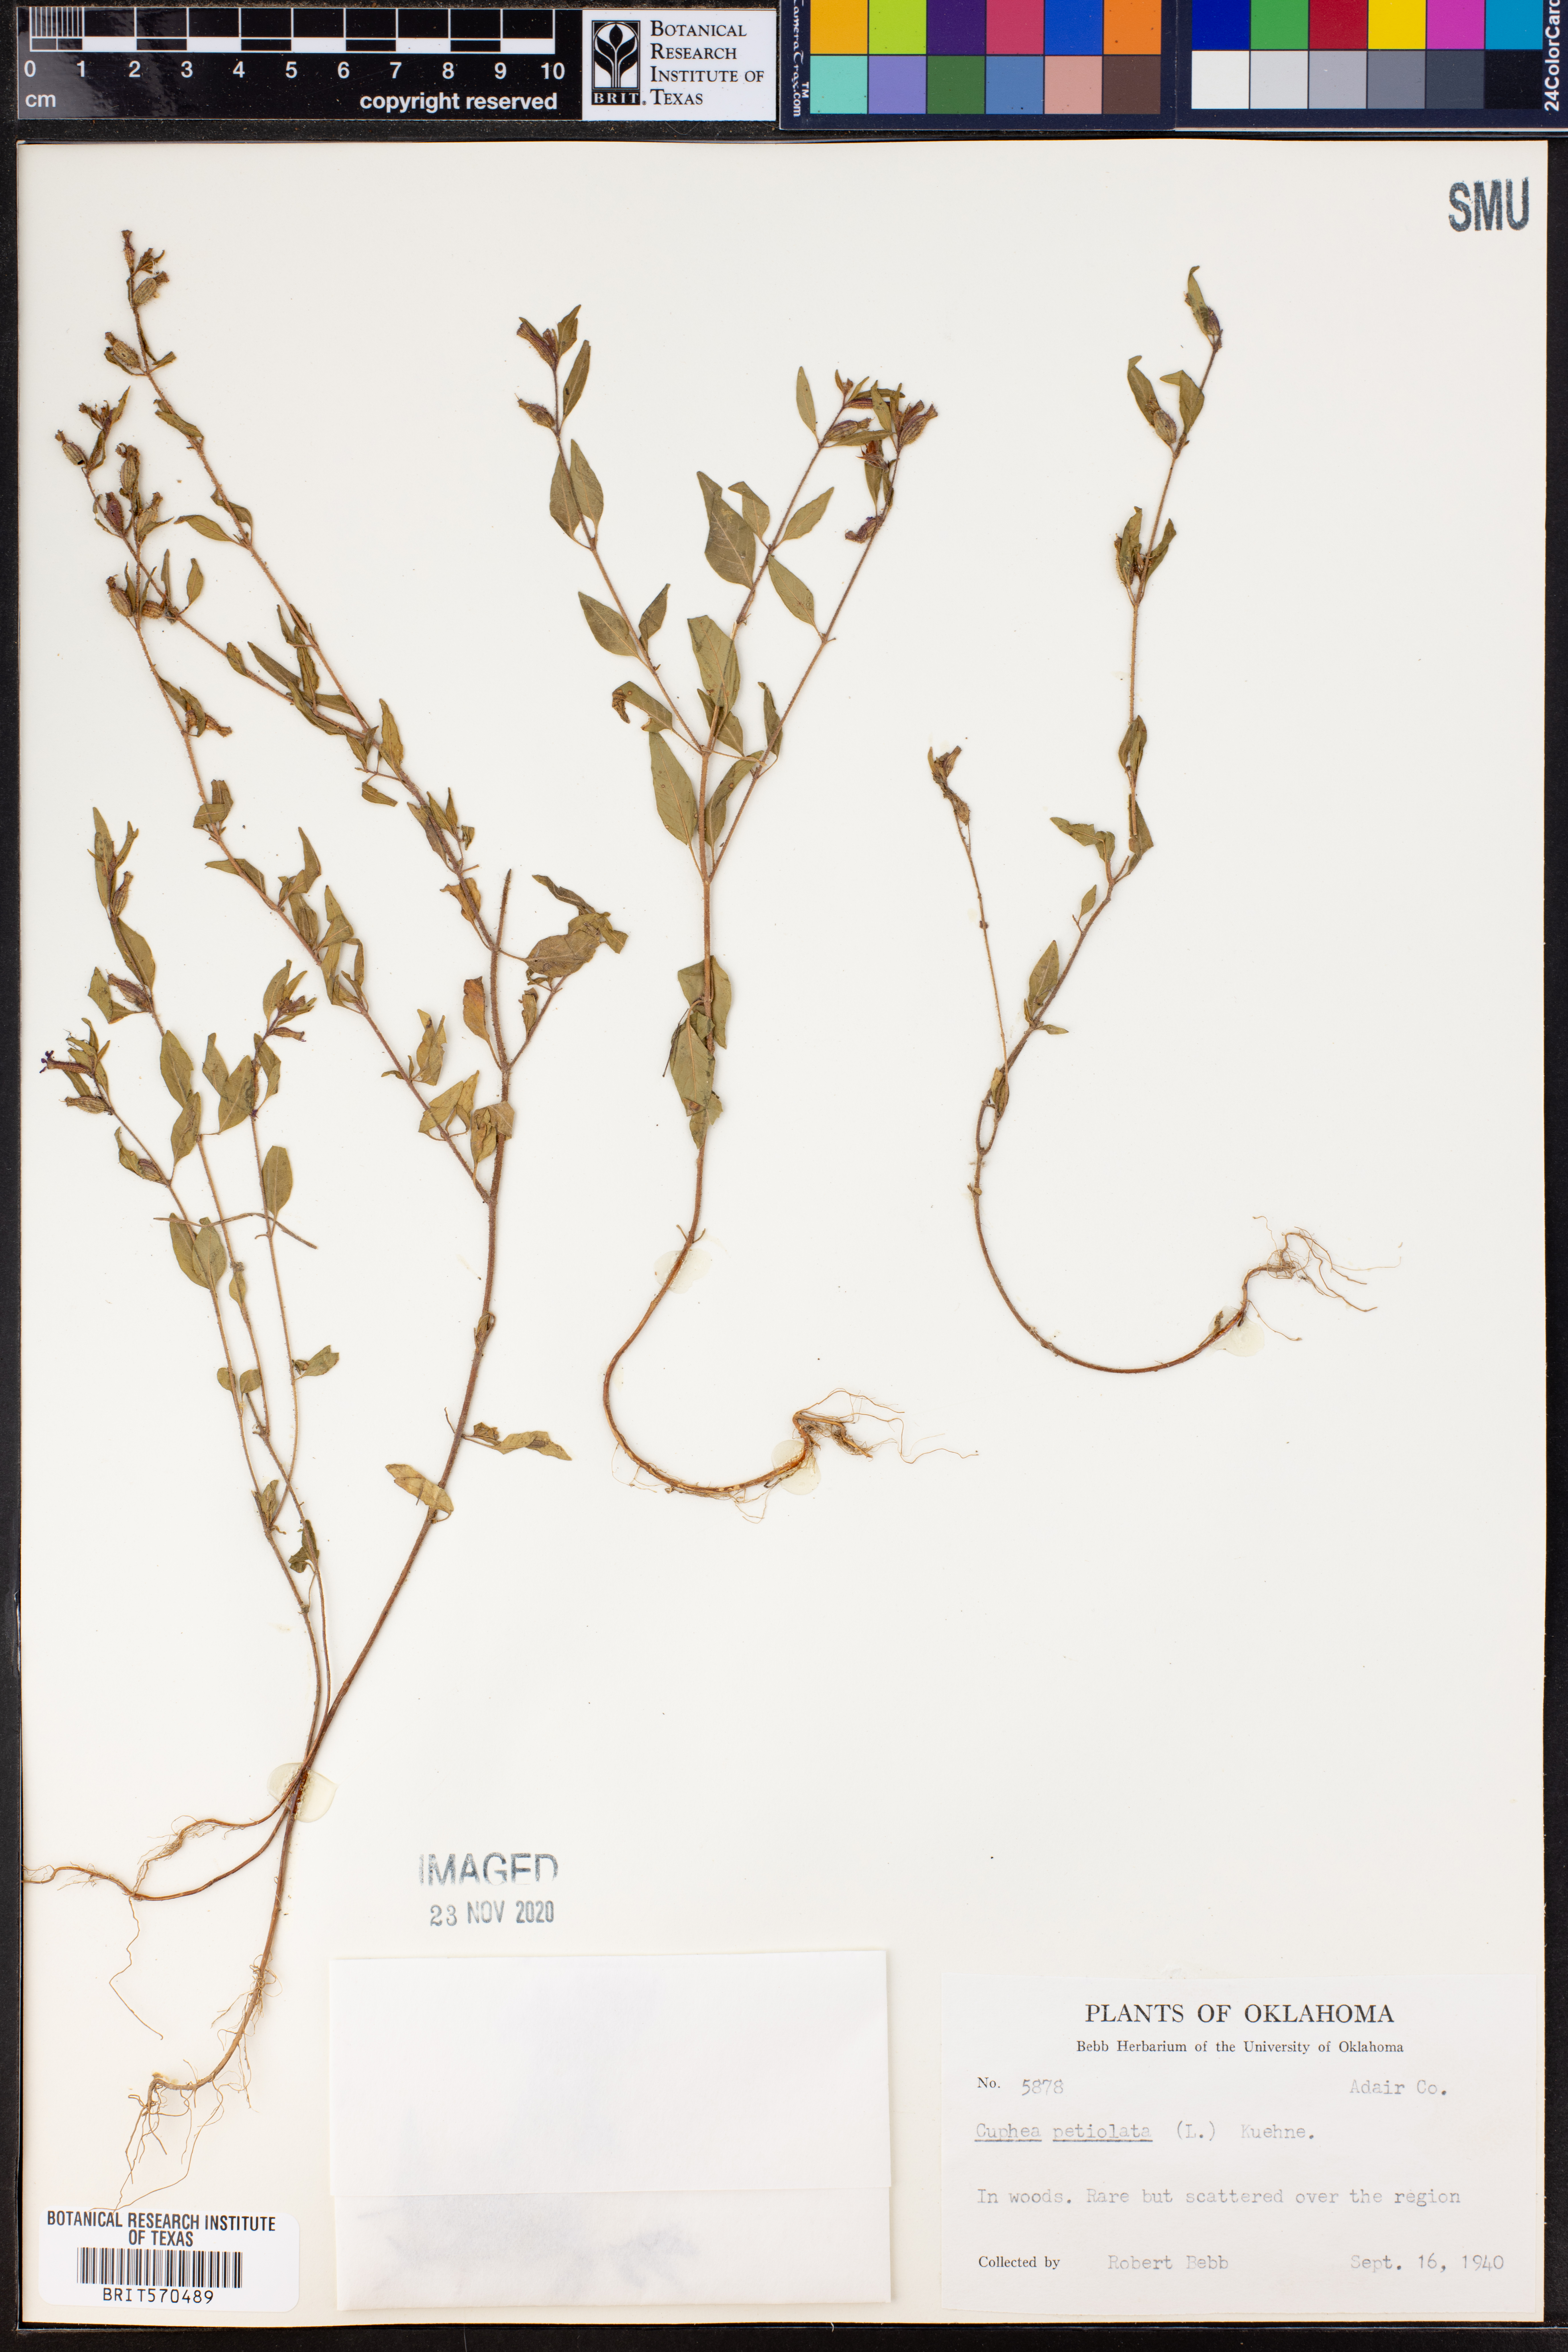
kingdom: Plantae
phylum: Tracheophyta
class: Magnoliopsida
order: Myrtales
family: Lythraceae
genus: Cuphea
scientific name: Cuphea viscosissima
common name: Clammy cuphea
